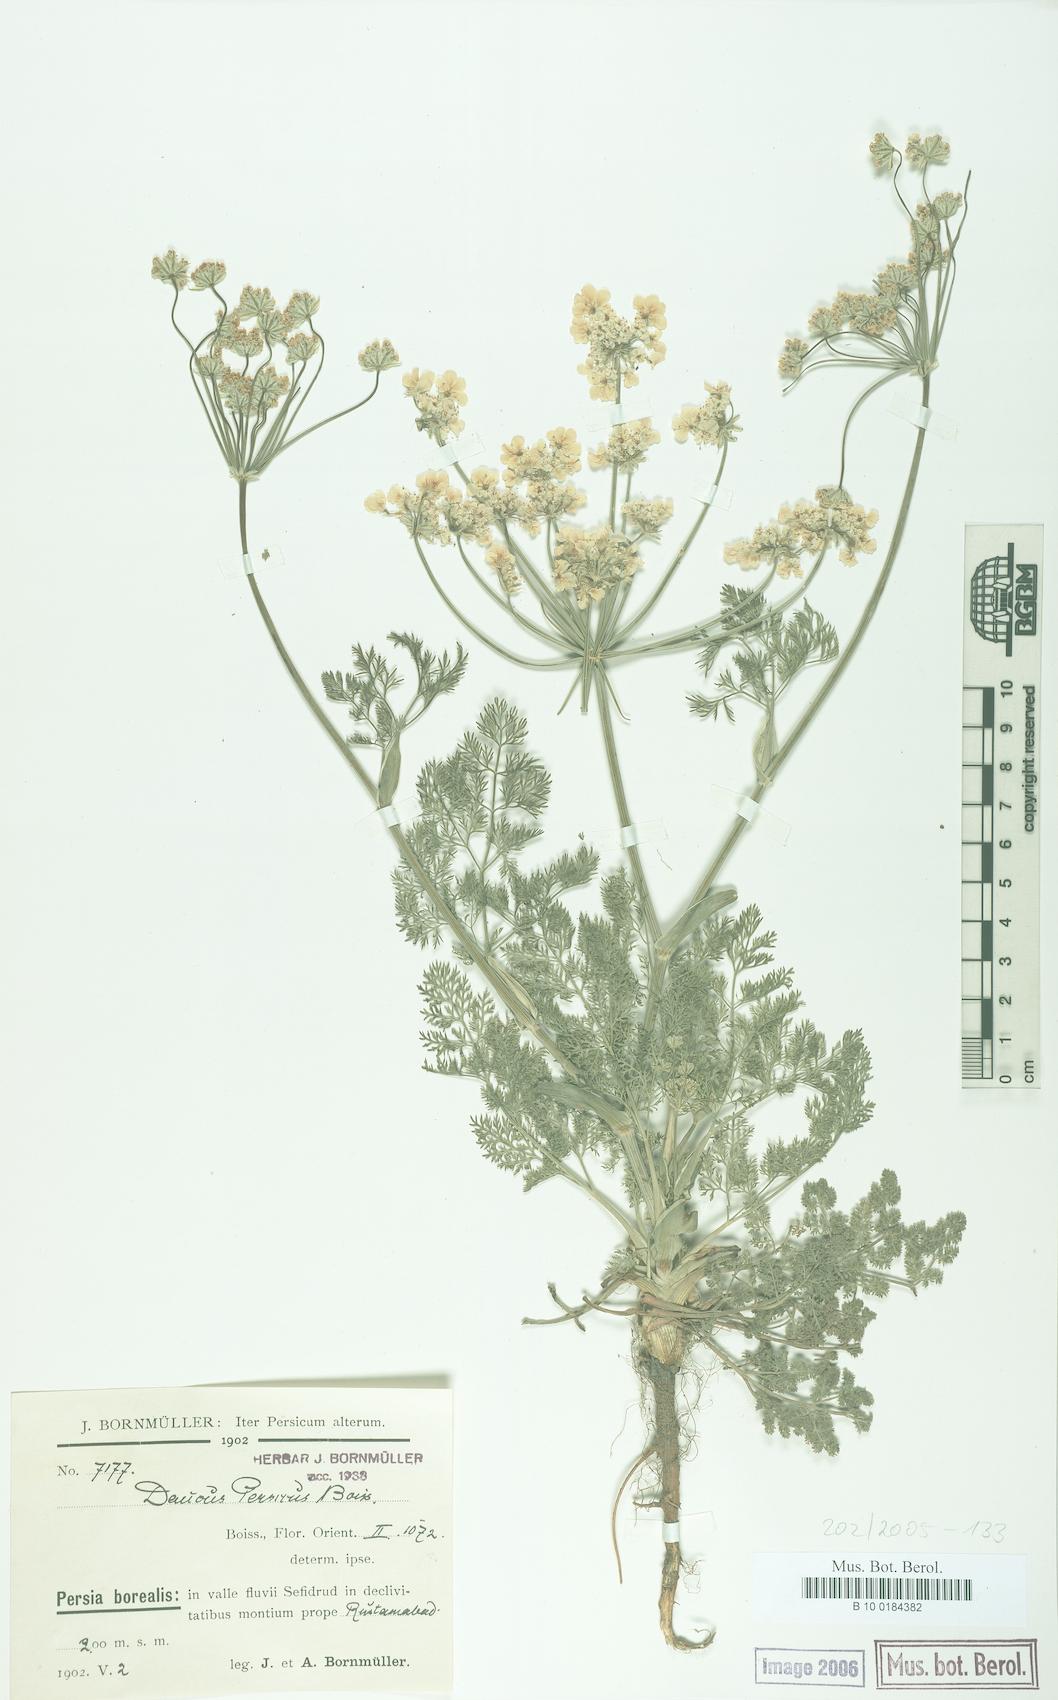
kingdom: Plantae
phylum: Tracheophyta
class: Magnoliopsida
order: Apiales
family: Apiaceae
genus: Astrodaucus
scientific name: Astrodaucus persicus
